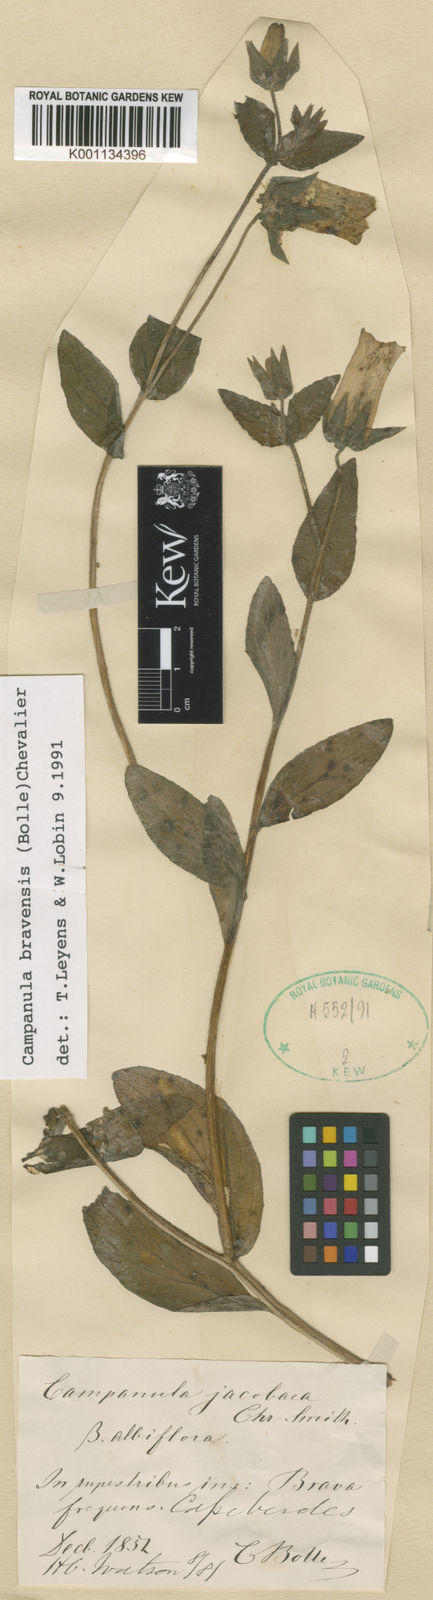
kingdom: Plantae
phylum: Tracheophyta
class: Magnoliopsida
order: Asterales
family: Campanulaceae
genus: Campanula
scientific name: Campanula
